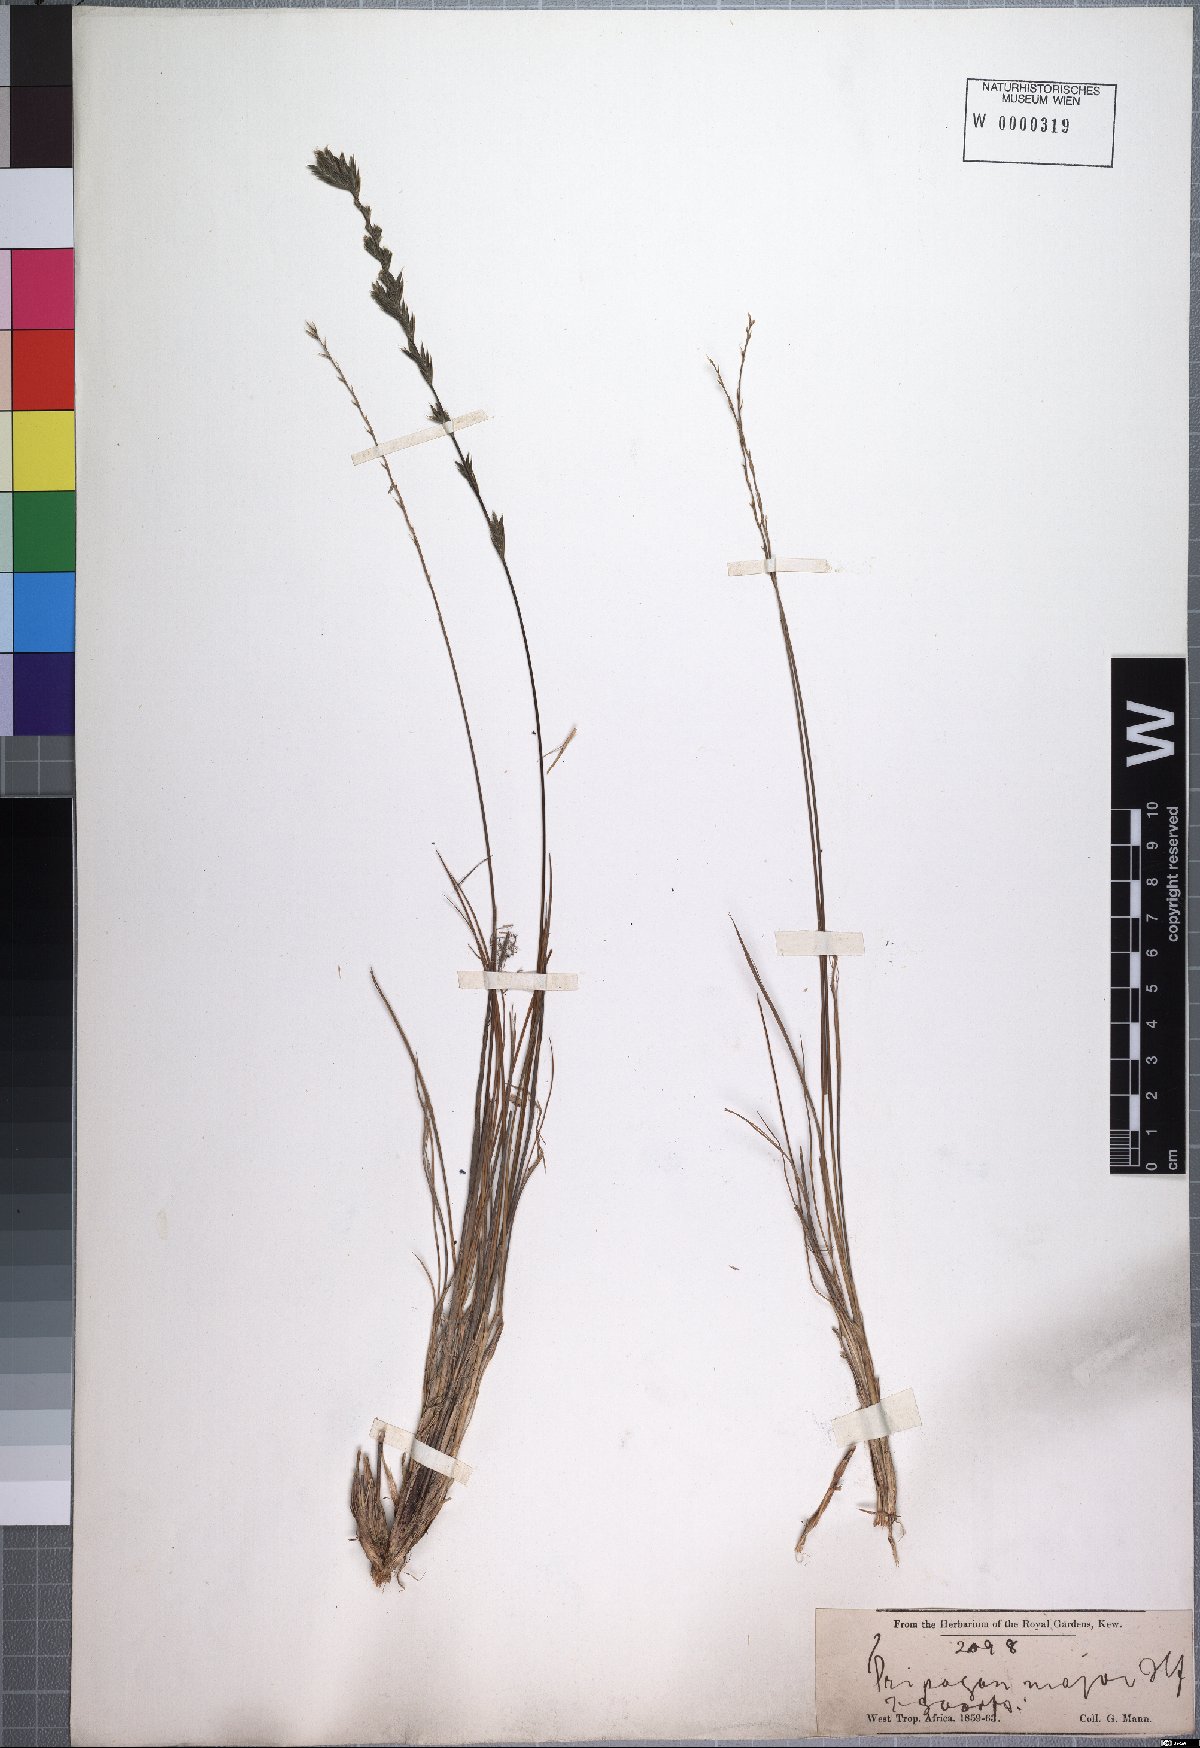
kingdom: Plantae
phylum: Tracheophyta
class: Liliopsida
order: Poales
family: Poaceae
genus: Tripogon
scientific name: Tripogon major
